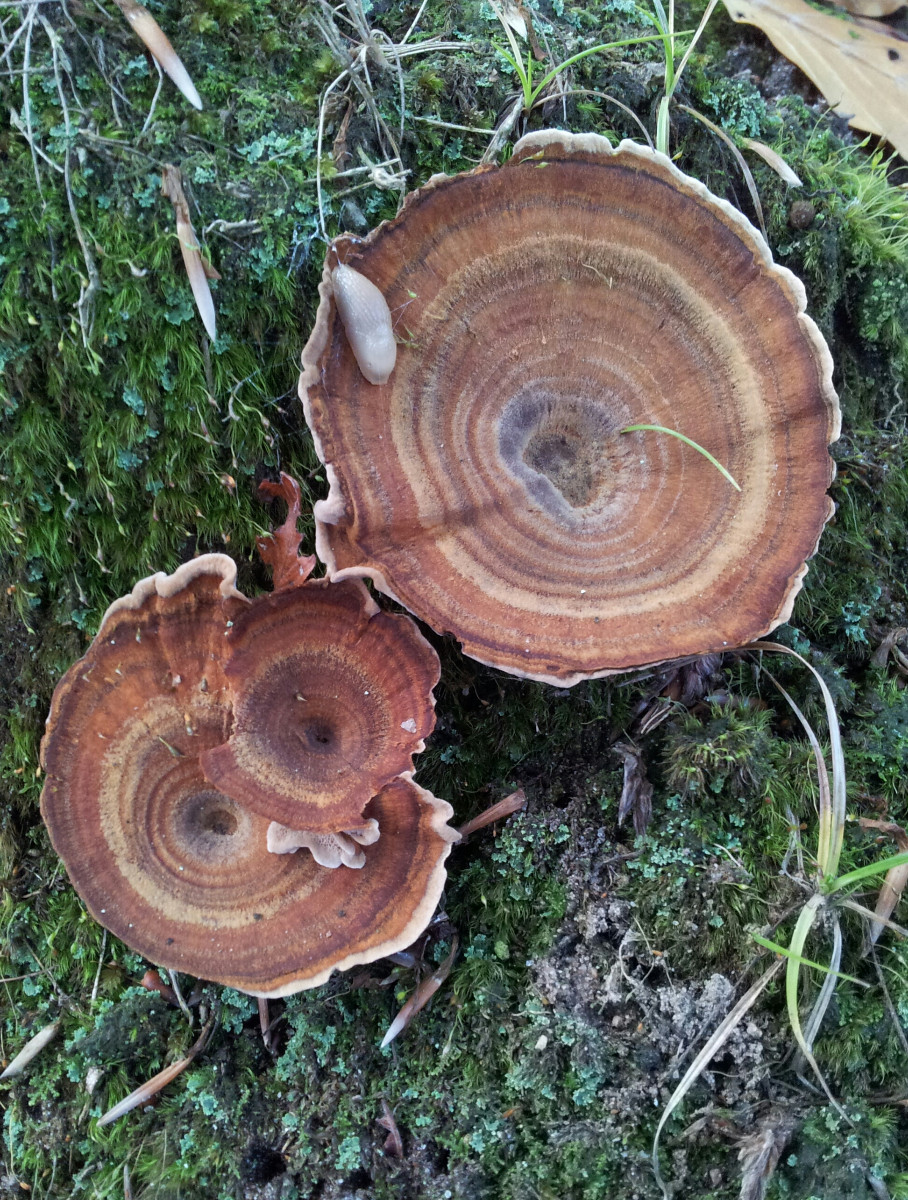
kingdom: Fungi
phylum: Basidiomycota
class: Agaricomycetes
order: Hymenochaetales
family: Hymenochaetaceae
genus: Coltricia
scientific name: Coltricia
